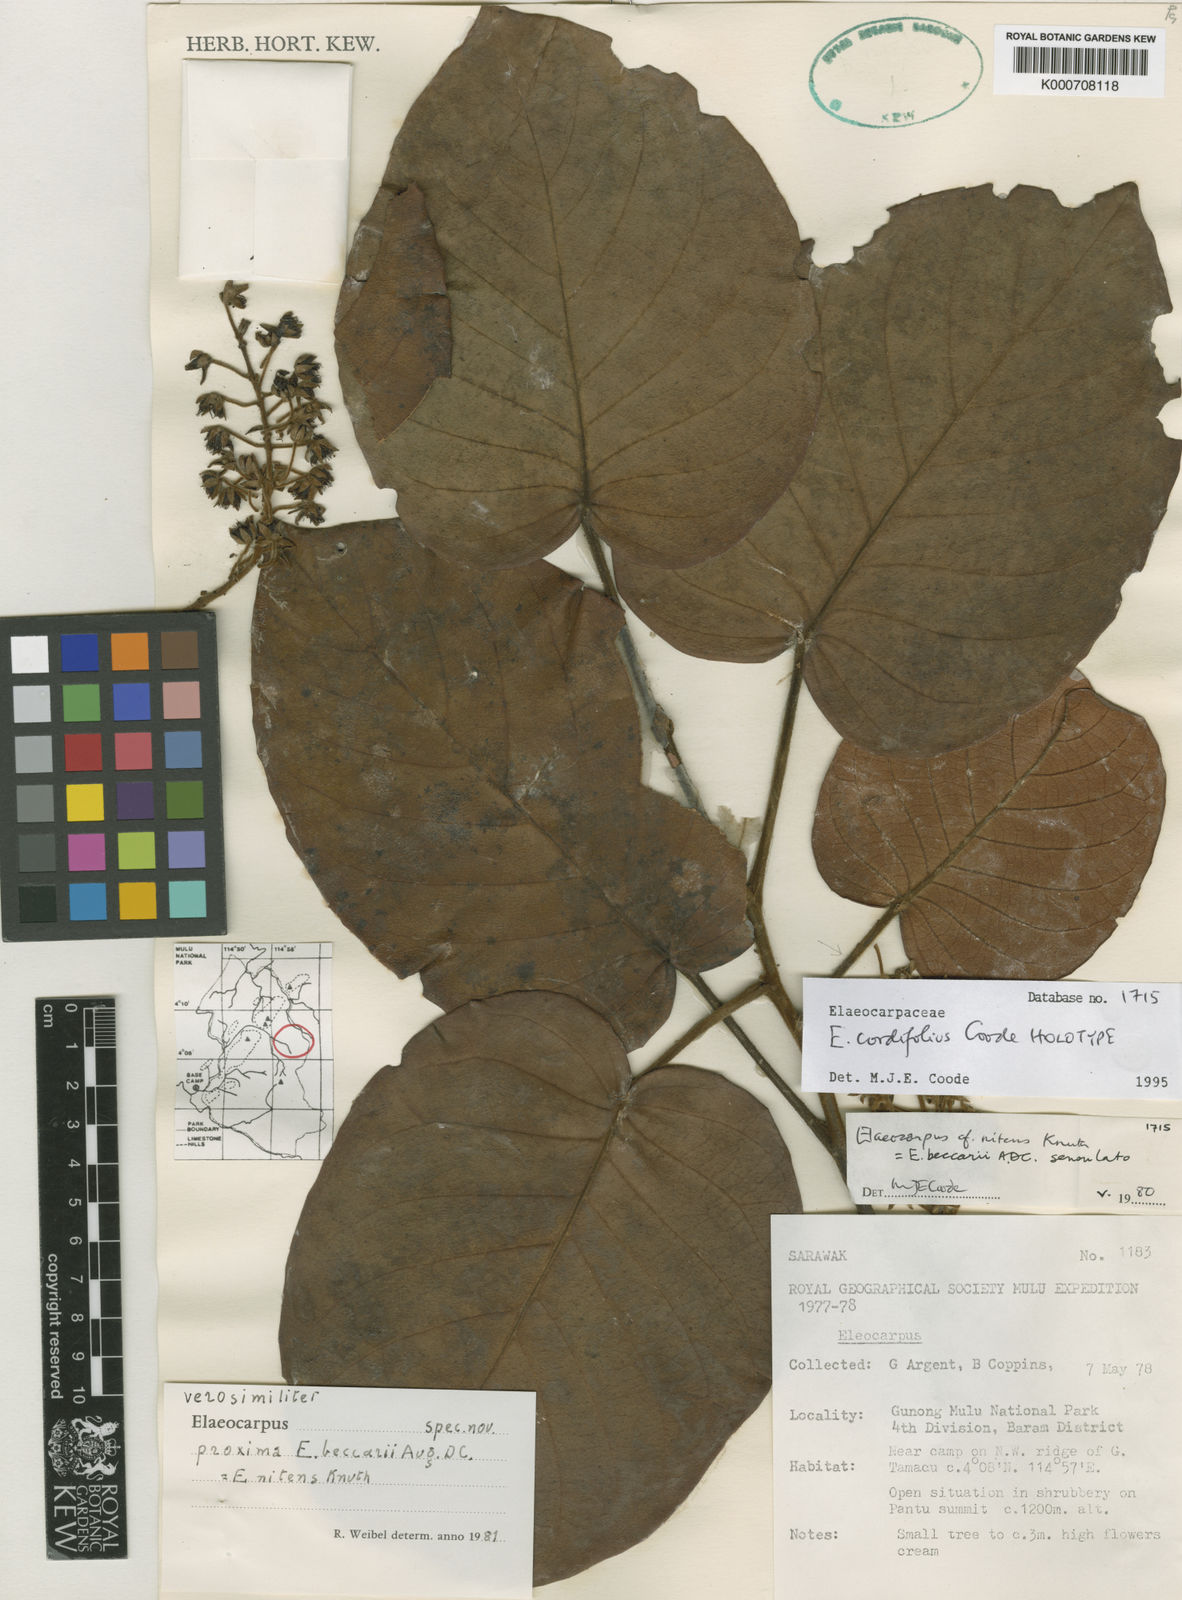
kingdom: Plantae
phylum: Tracheophyta
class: Magnoliopsida
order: Oxalidales
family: Elaeocarpaceae
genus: Elaeocarpus
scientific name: Elaeocarpus cordifolius
